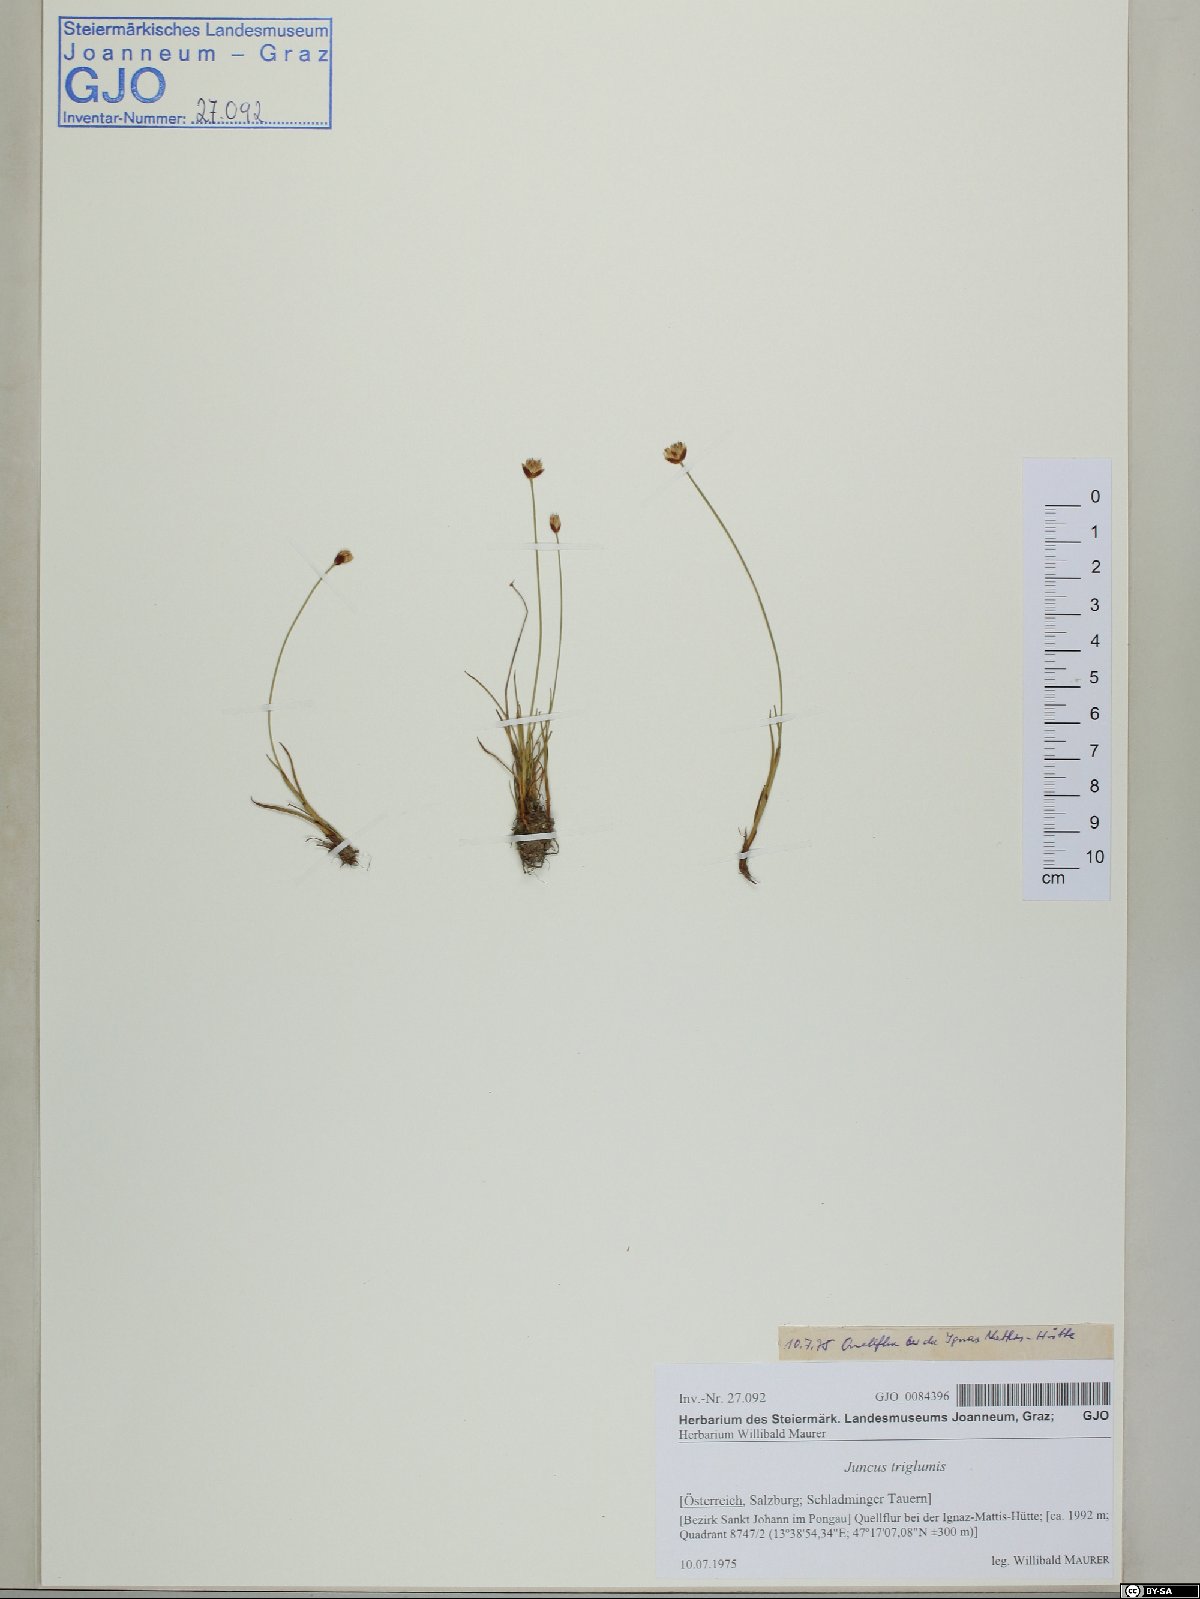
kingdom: Plantae
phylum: Tracheophyta
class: Liliopsida
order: Poales
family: Juncaceae
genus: Juncus
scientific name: Juncus triglumis
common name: Three-flowered rush
